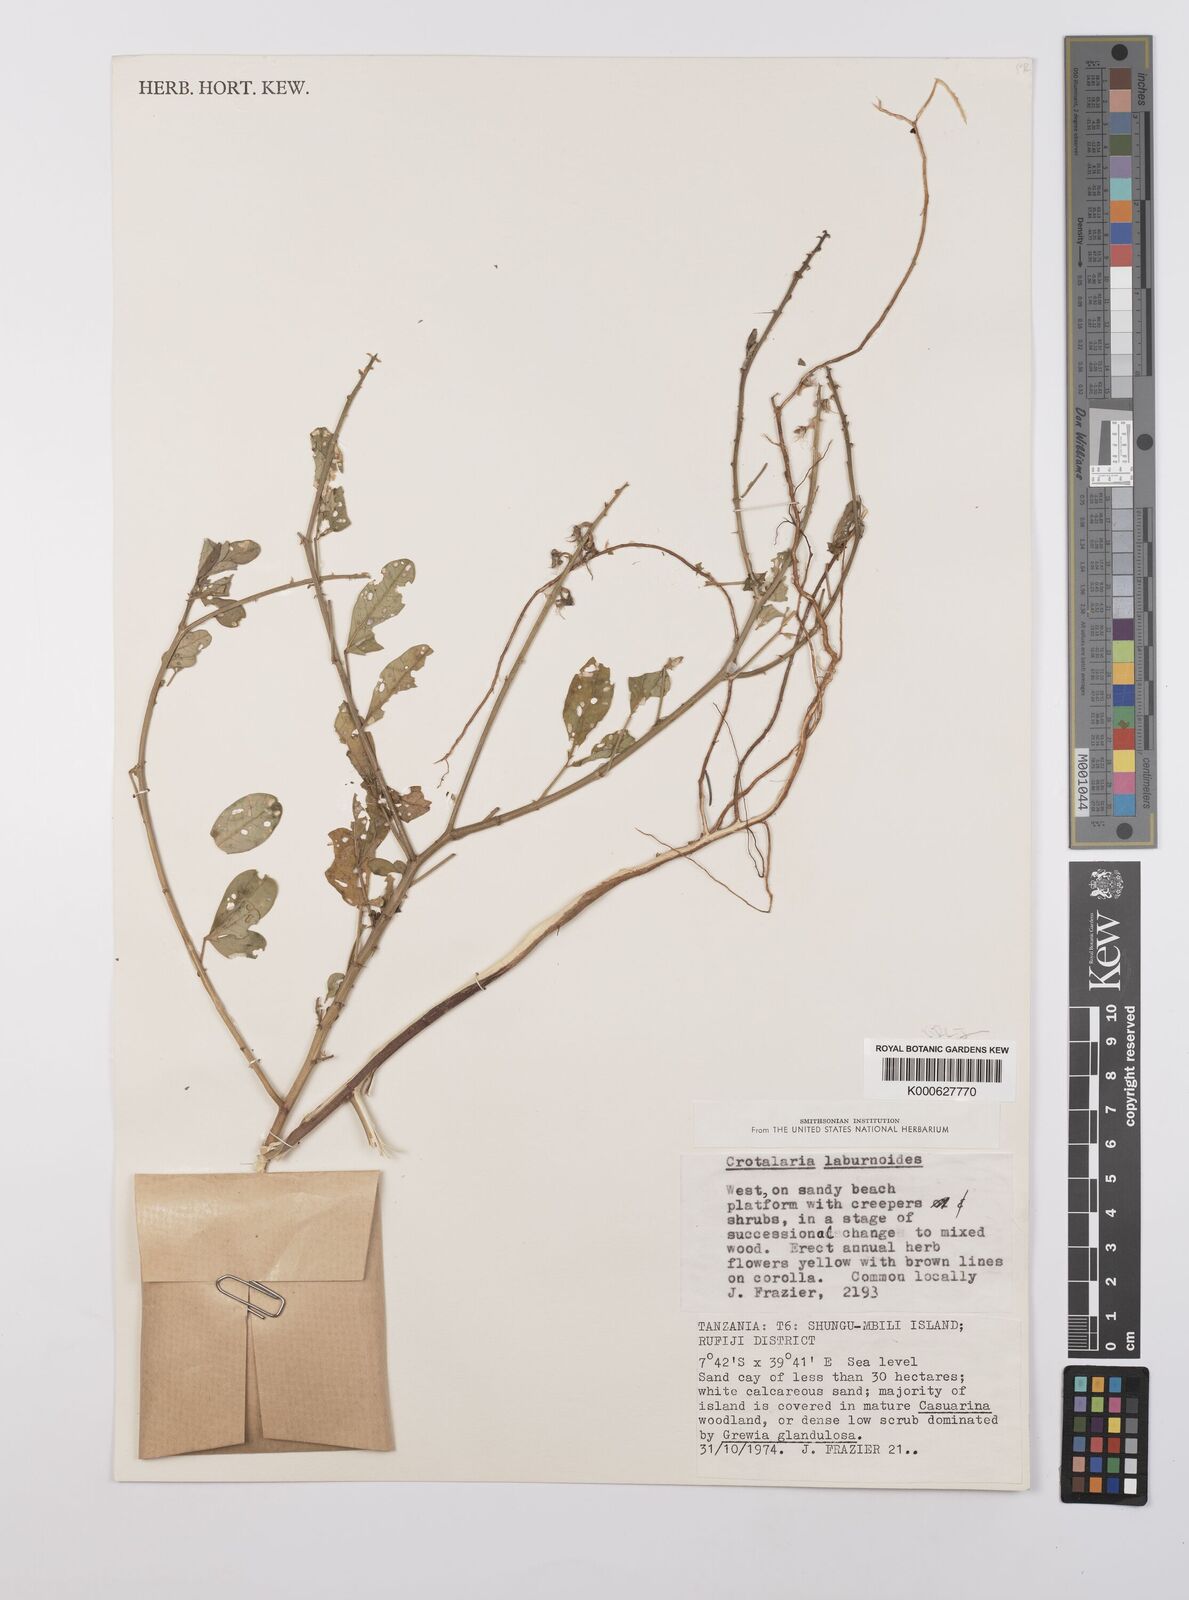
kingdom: Plantae
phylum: Tracheophyta
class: Magnoliopsida
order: Fabales
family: Fabaceae
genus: Crotalaria
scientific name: Crotalaria laburnoides
